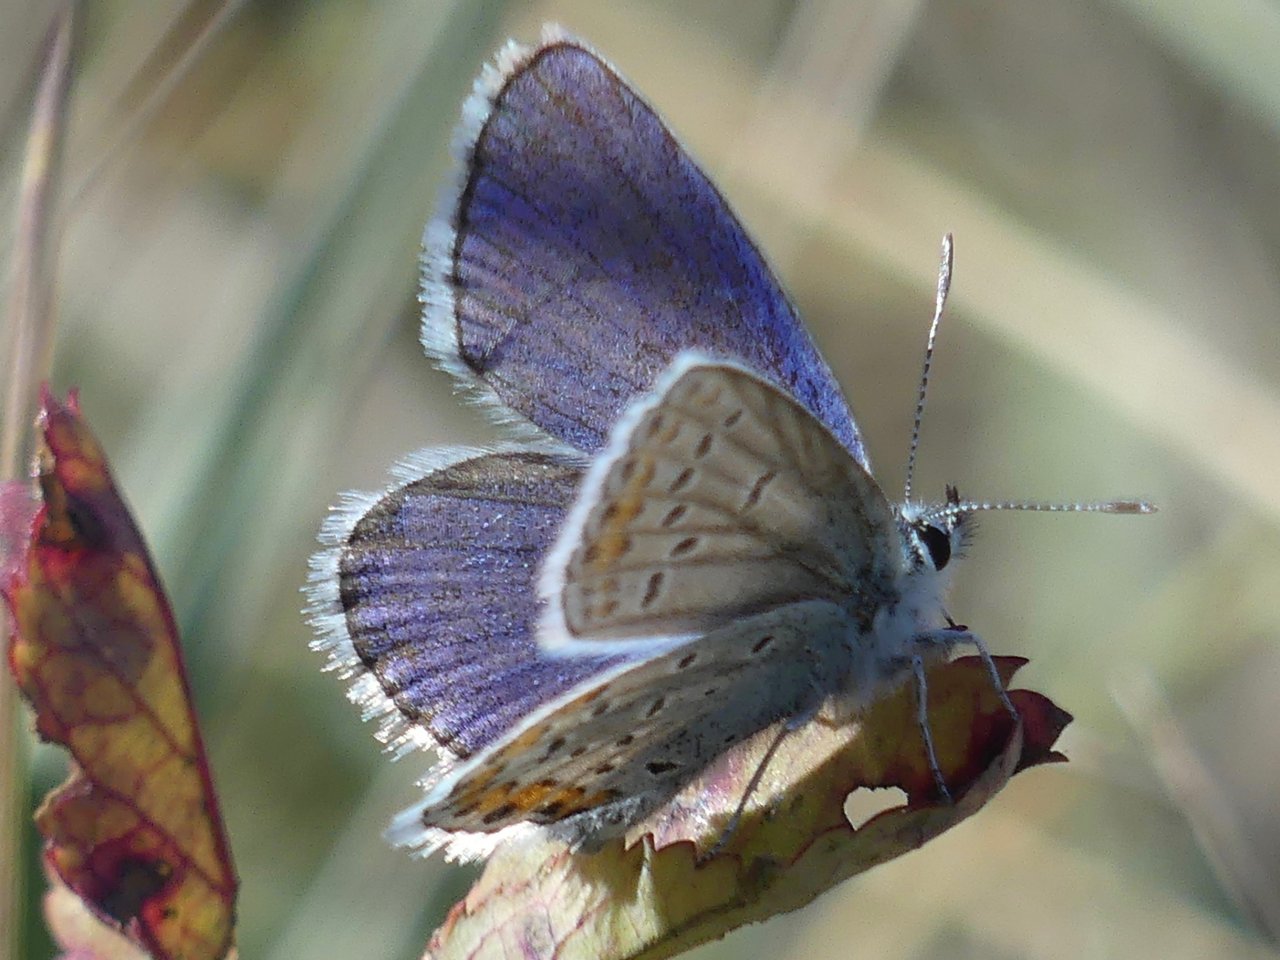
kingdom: Animalia
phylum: Arthropoda
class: Insecta
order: Lepidoptera
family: Lycaenidae
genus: Lycaeides
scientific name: Lycaeides melissa
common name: Melissa Blue
